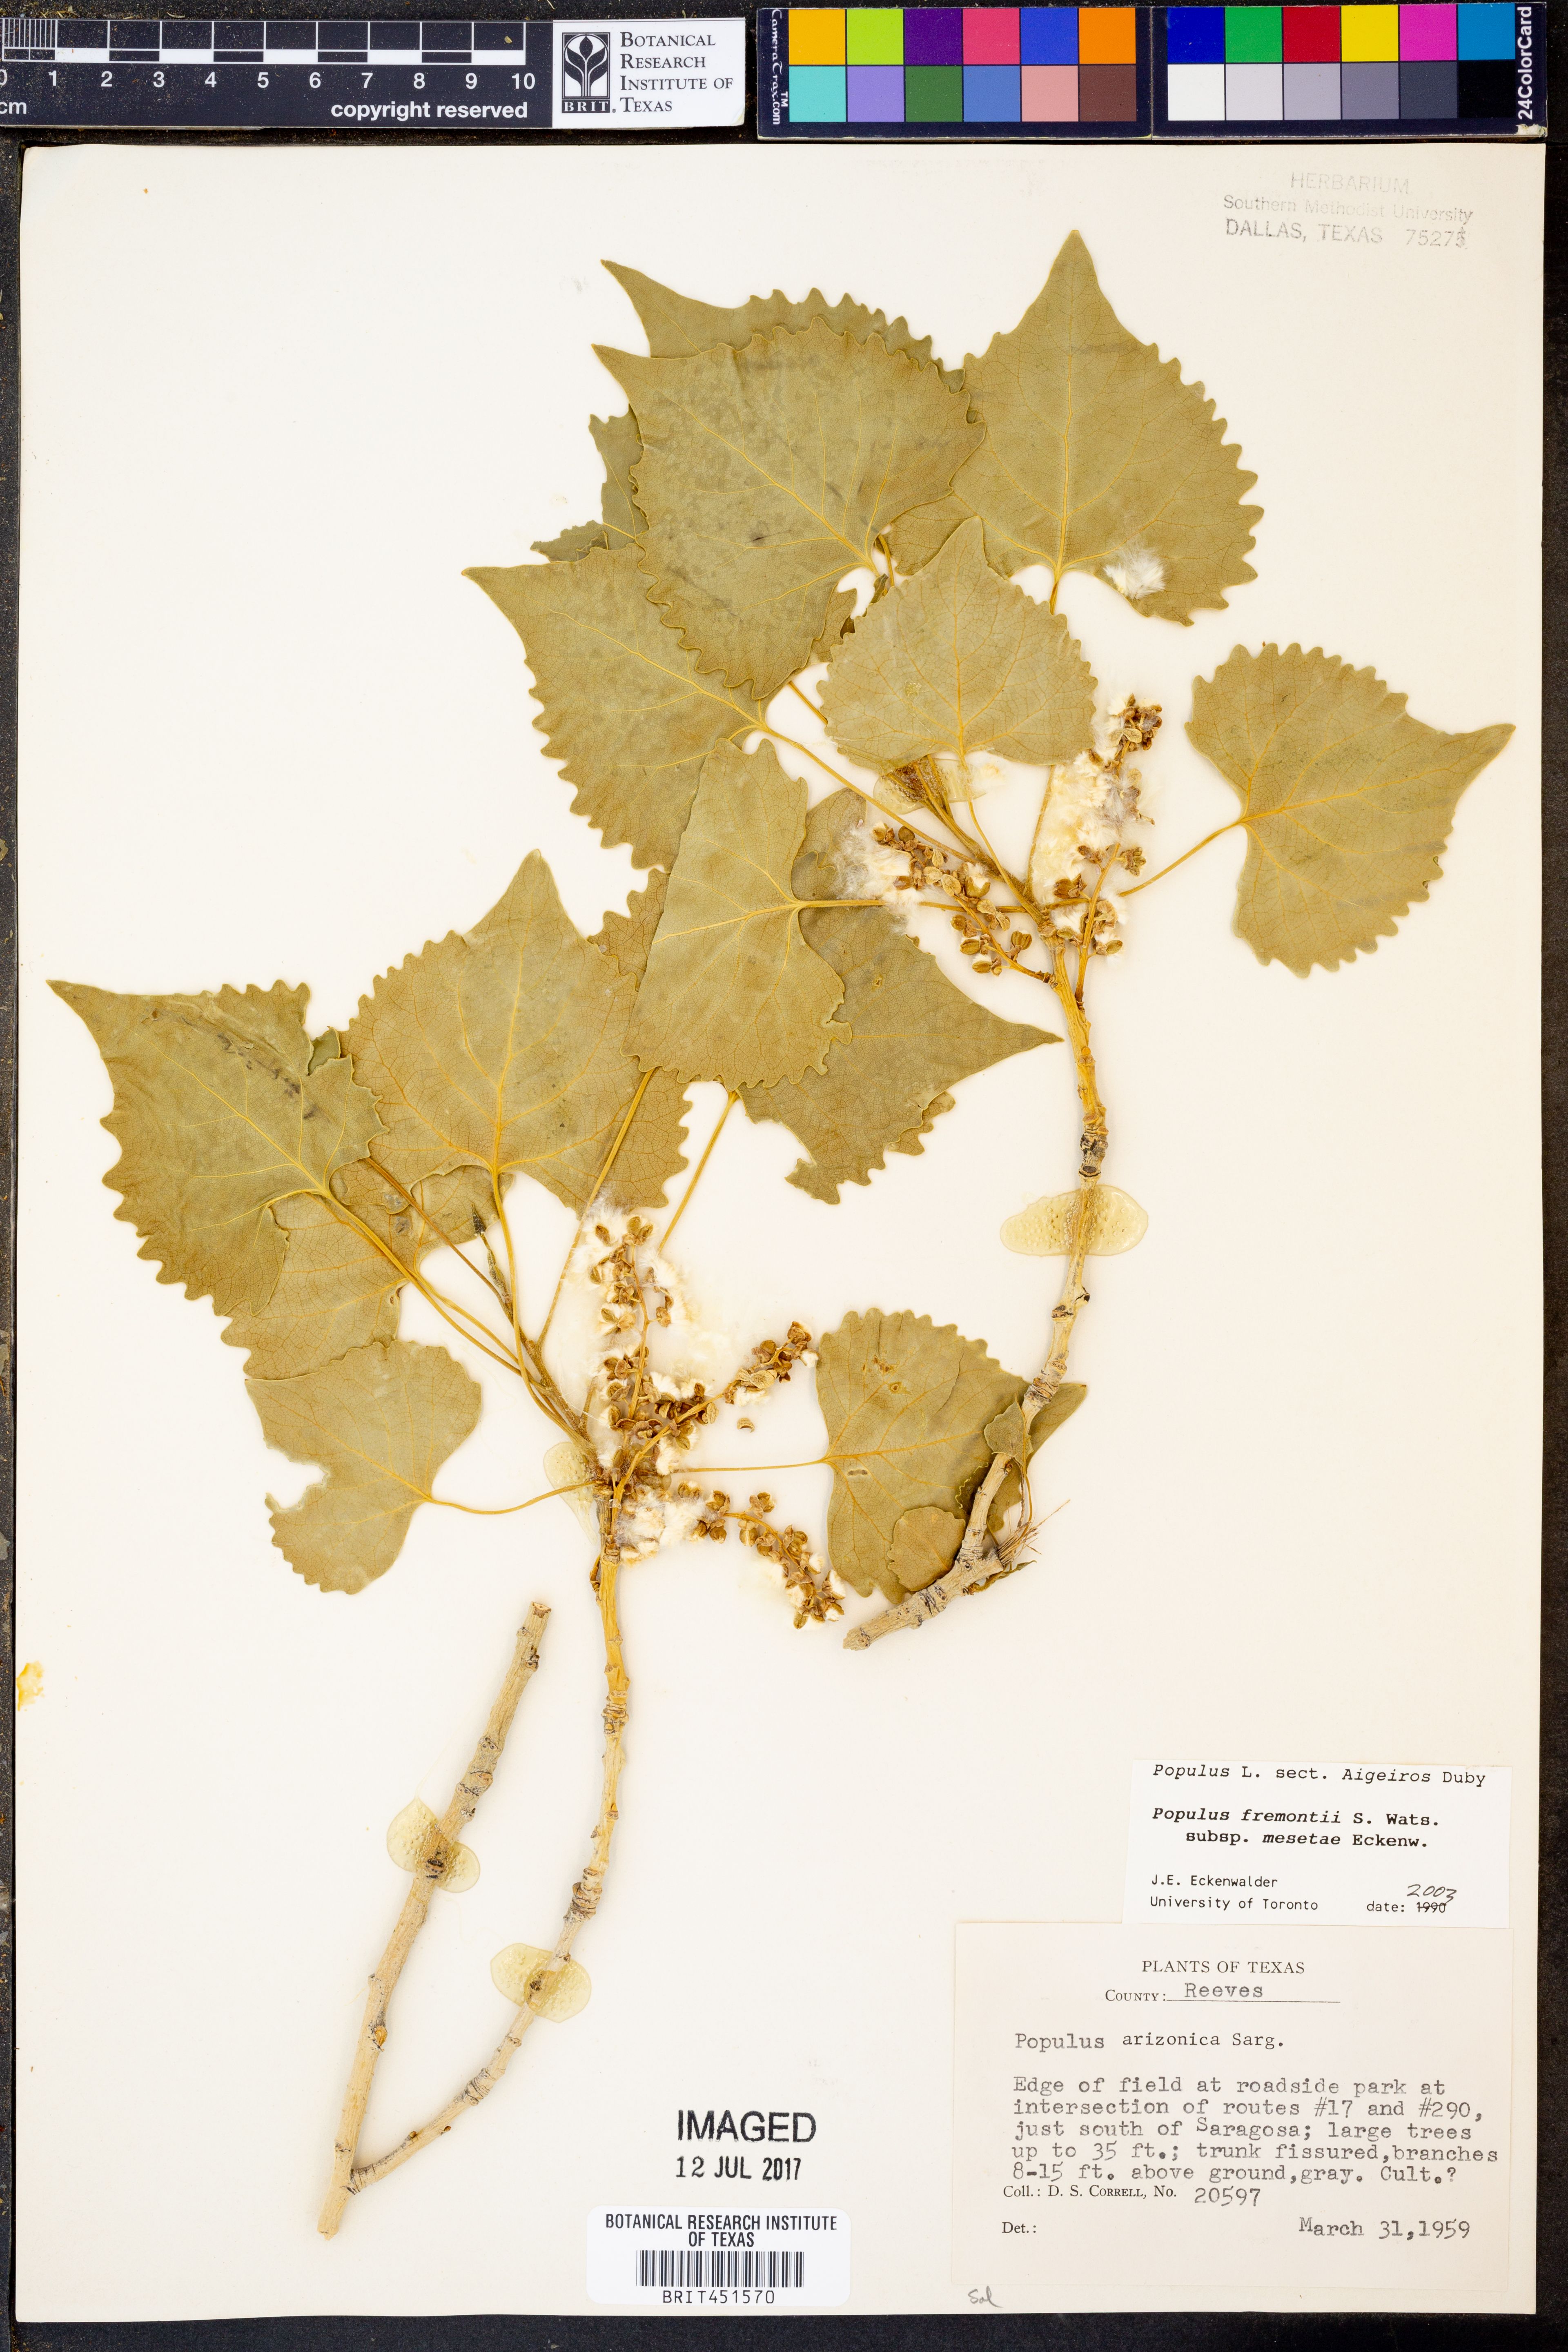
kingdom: Plantae
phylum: Tracheophyta
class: Magnoliopsida
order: Malpighiales
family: Salicaceae
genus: Populus
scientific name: Populus fremontii
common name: Fremont's cottonwood
